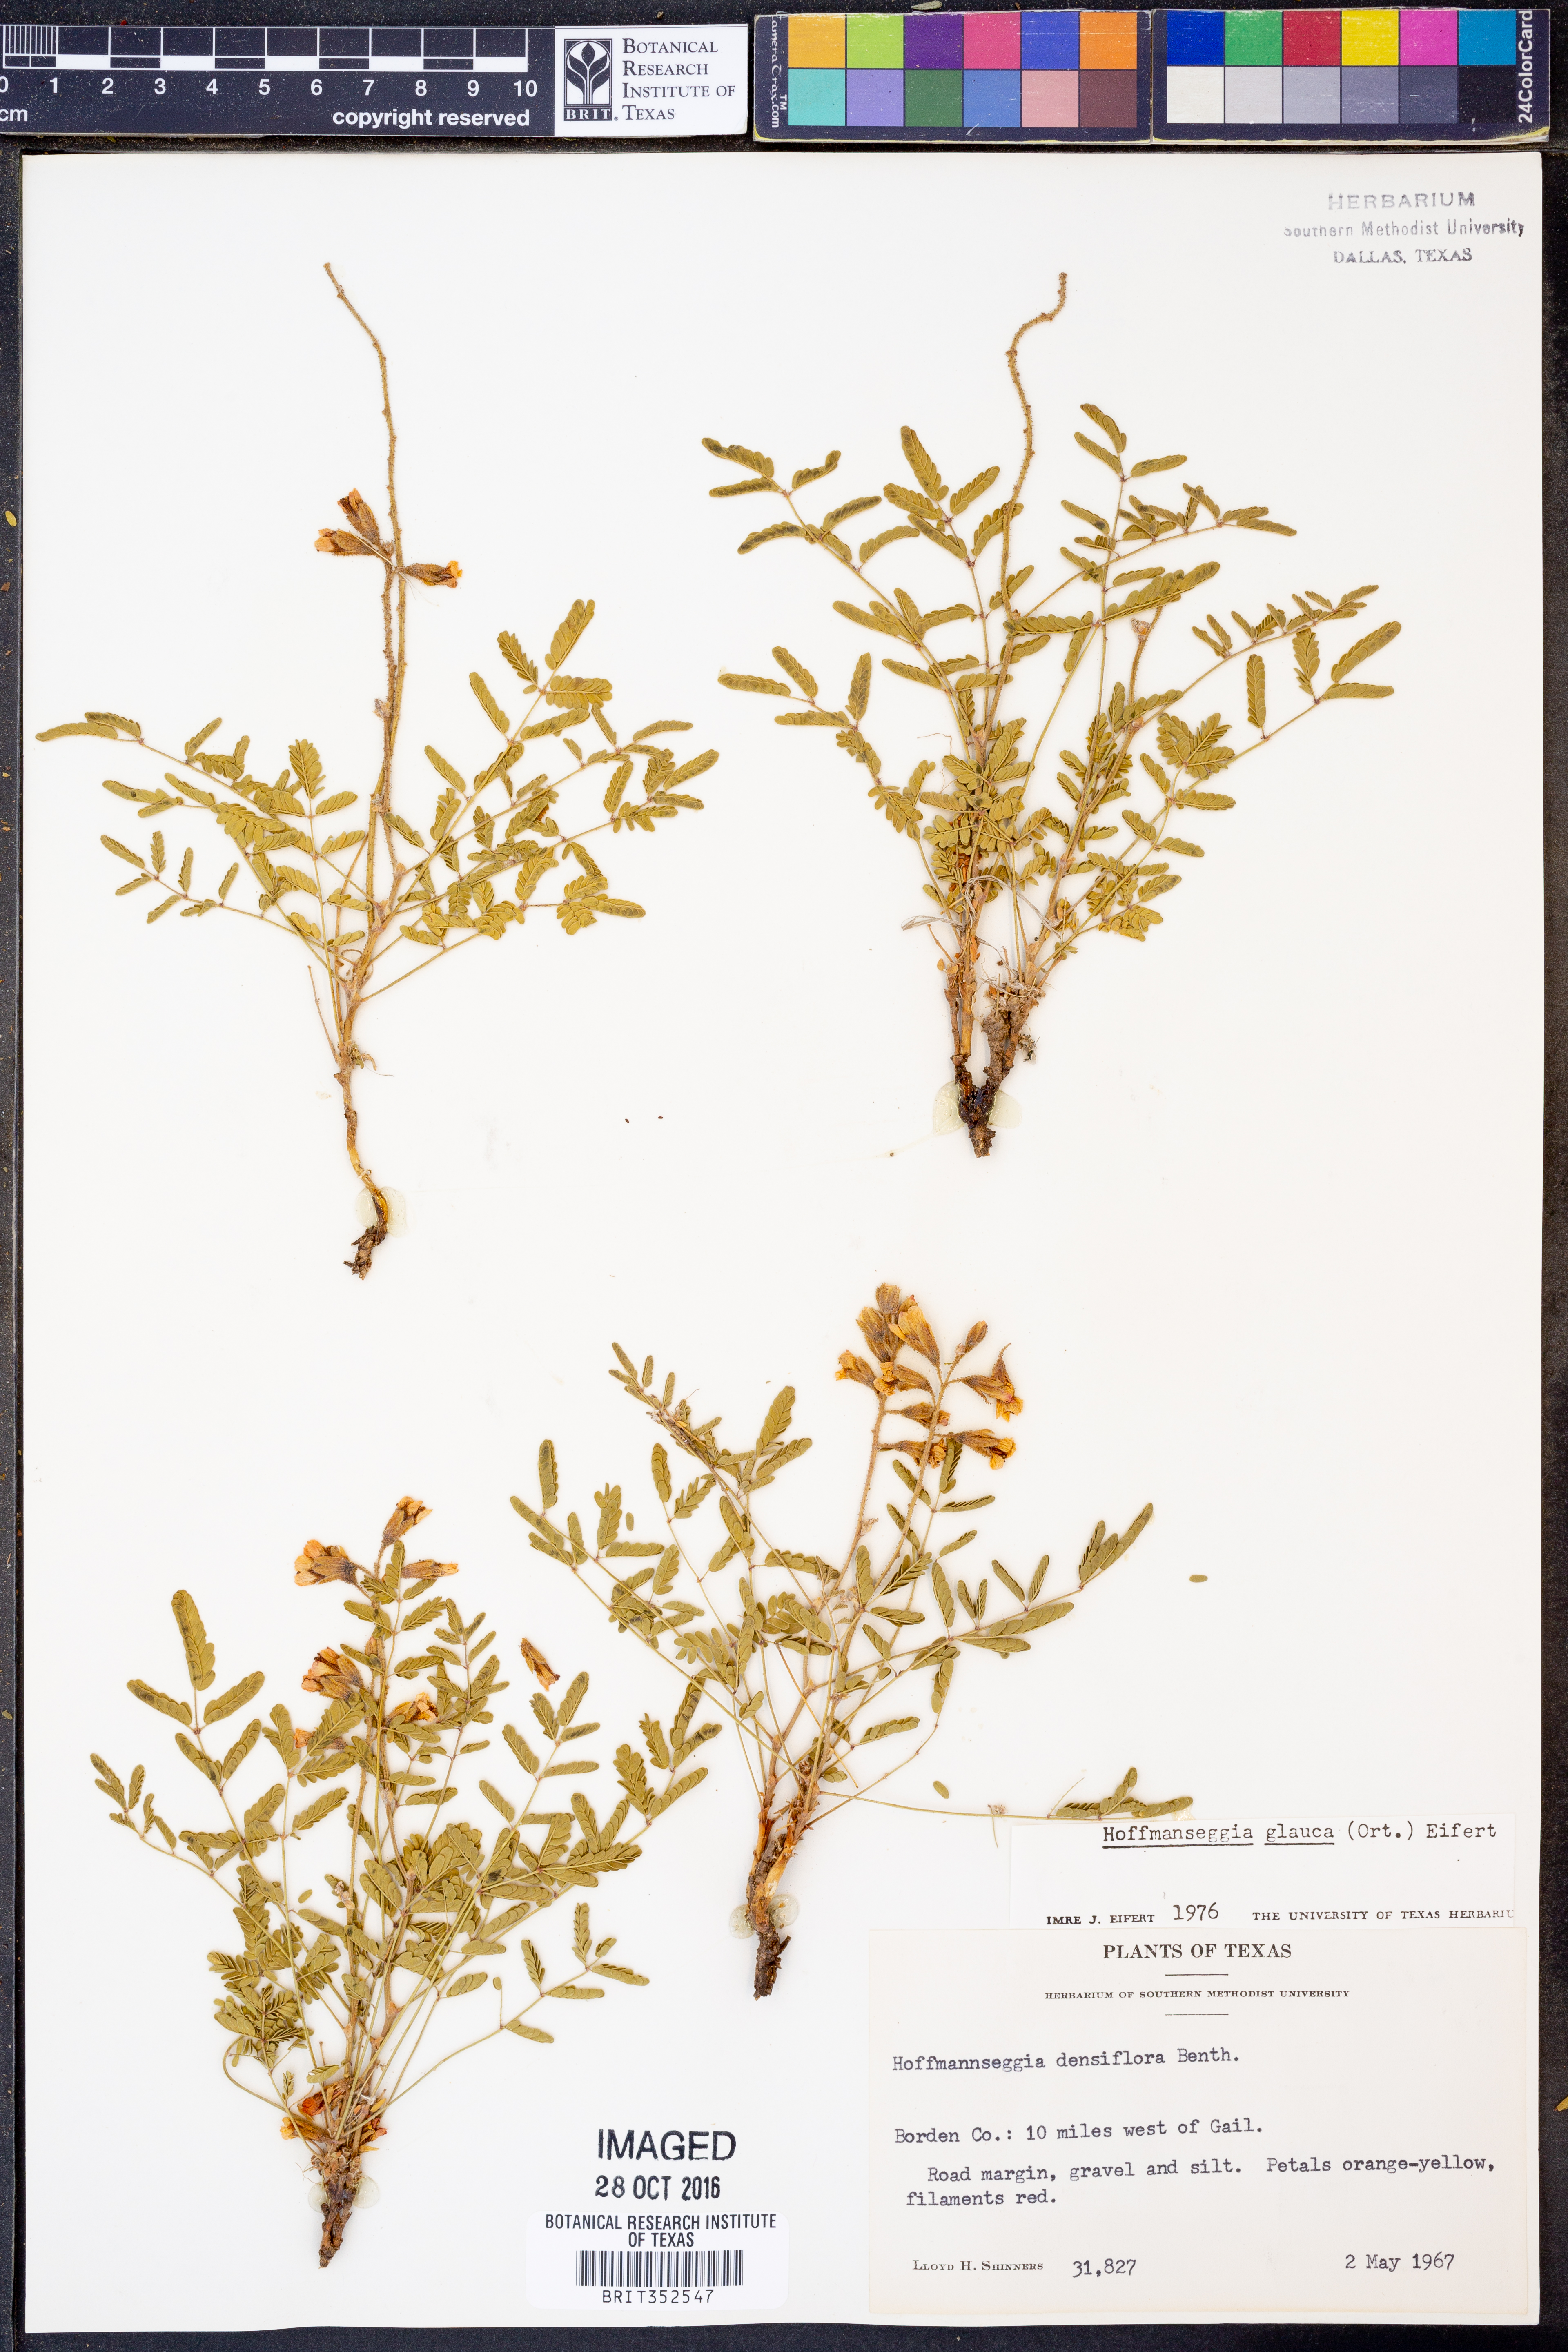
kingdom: Plantae
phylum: Tracheophyta
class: Magnoliopsida
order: Fabales
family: Fabaceae
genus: Hoffmannseggia
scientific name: Hoffmannseggia glauca
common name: Pignut
